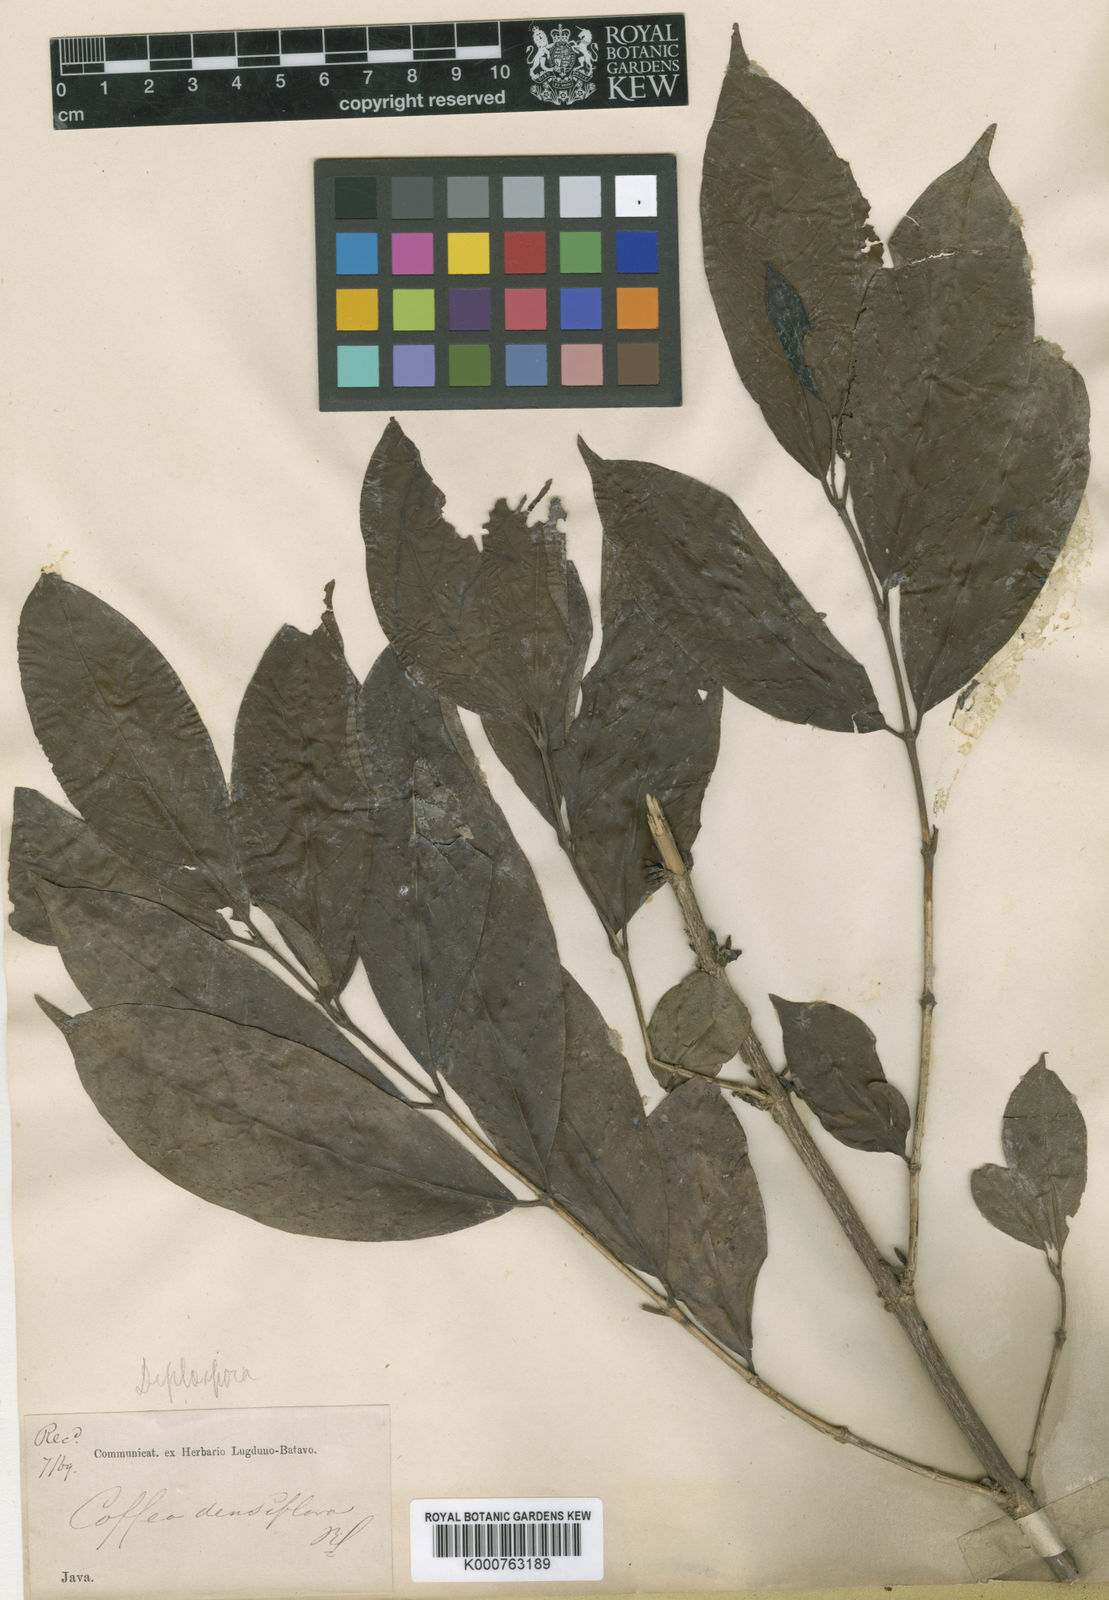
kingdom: Plantae
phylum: Tracheophyta
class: Magnoliopsida
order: Gentianales
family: Rubiaceae
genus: Nostolachma
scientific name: Nostolachma densiflora
